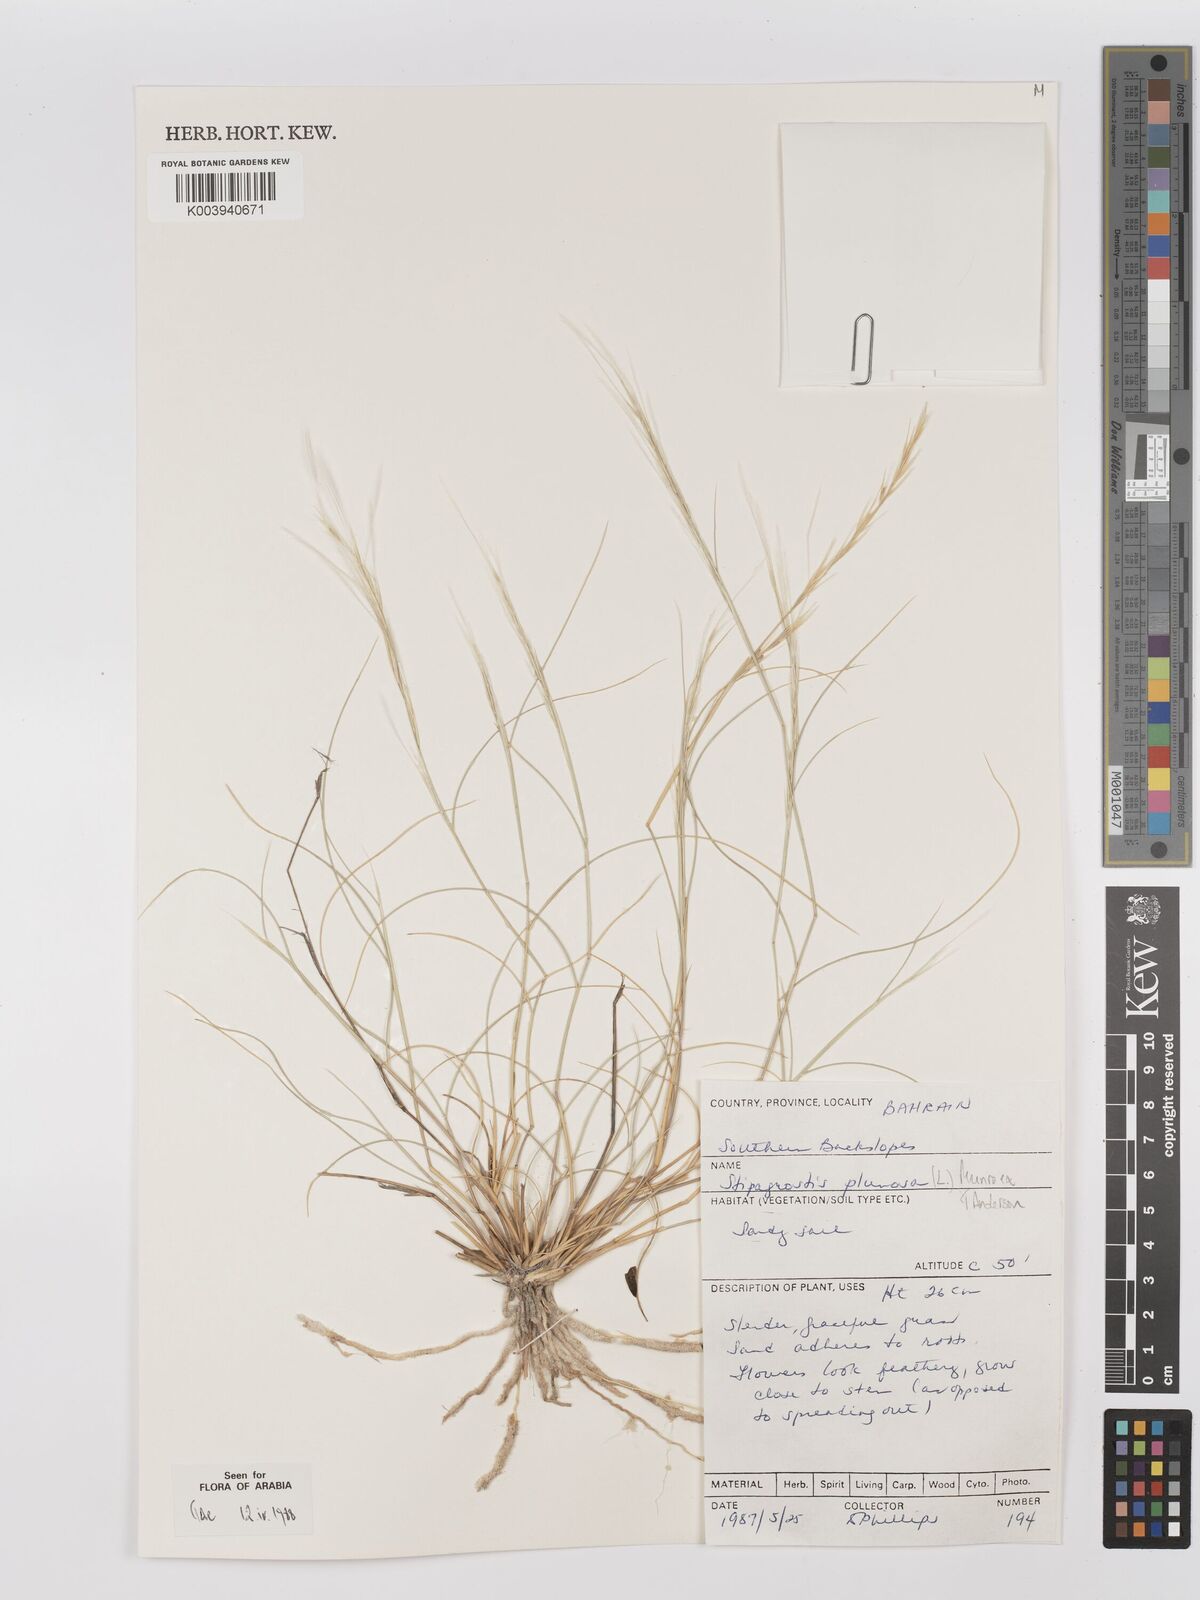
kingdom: Plantae
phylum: Tracheophyta
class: Liliopsida
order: Poales
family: Poaceae
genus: Stipagrostis
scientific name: Stipagrostis plumosa
